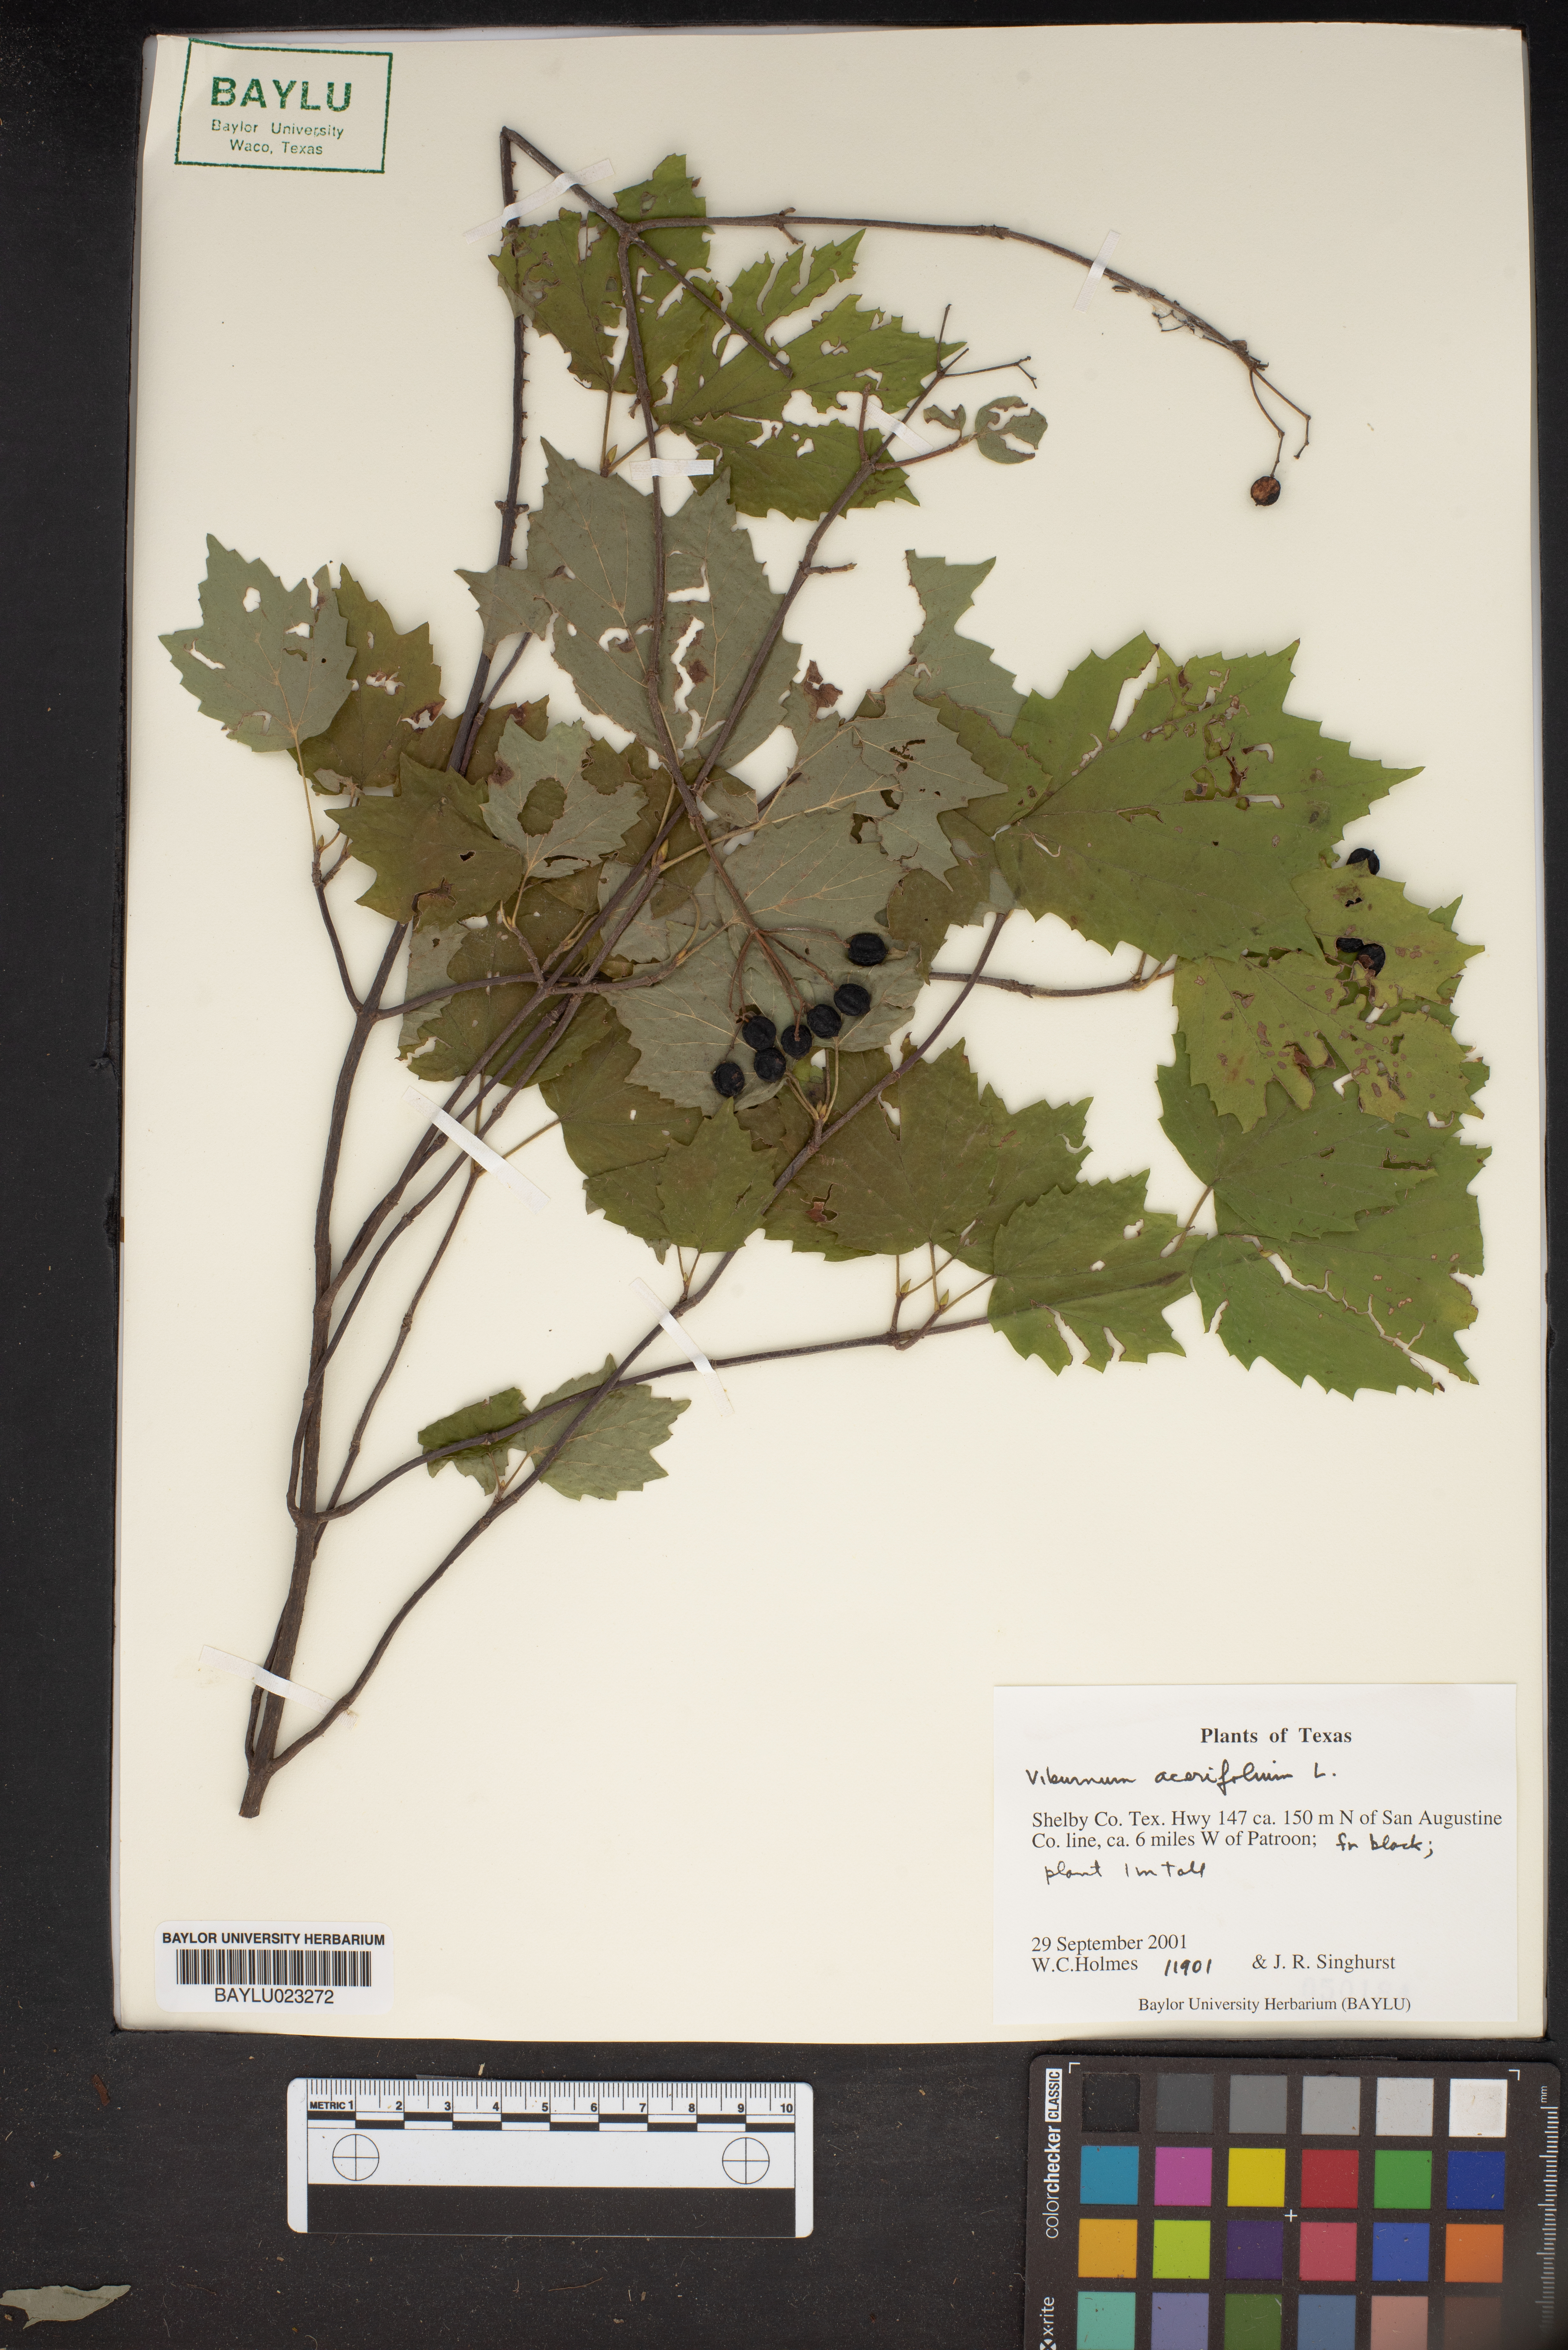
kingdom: Plantae
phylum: Tracheophyta
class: Magnoliopsida
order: Dipsacales
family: Viburnaceae
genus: Viburnum
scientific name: Viburnum acerifolium
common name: Dockmackie
